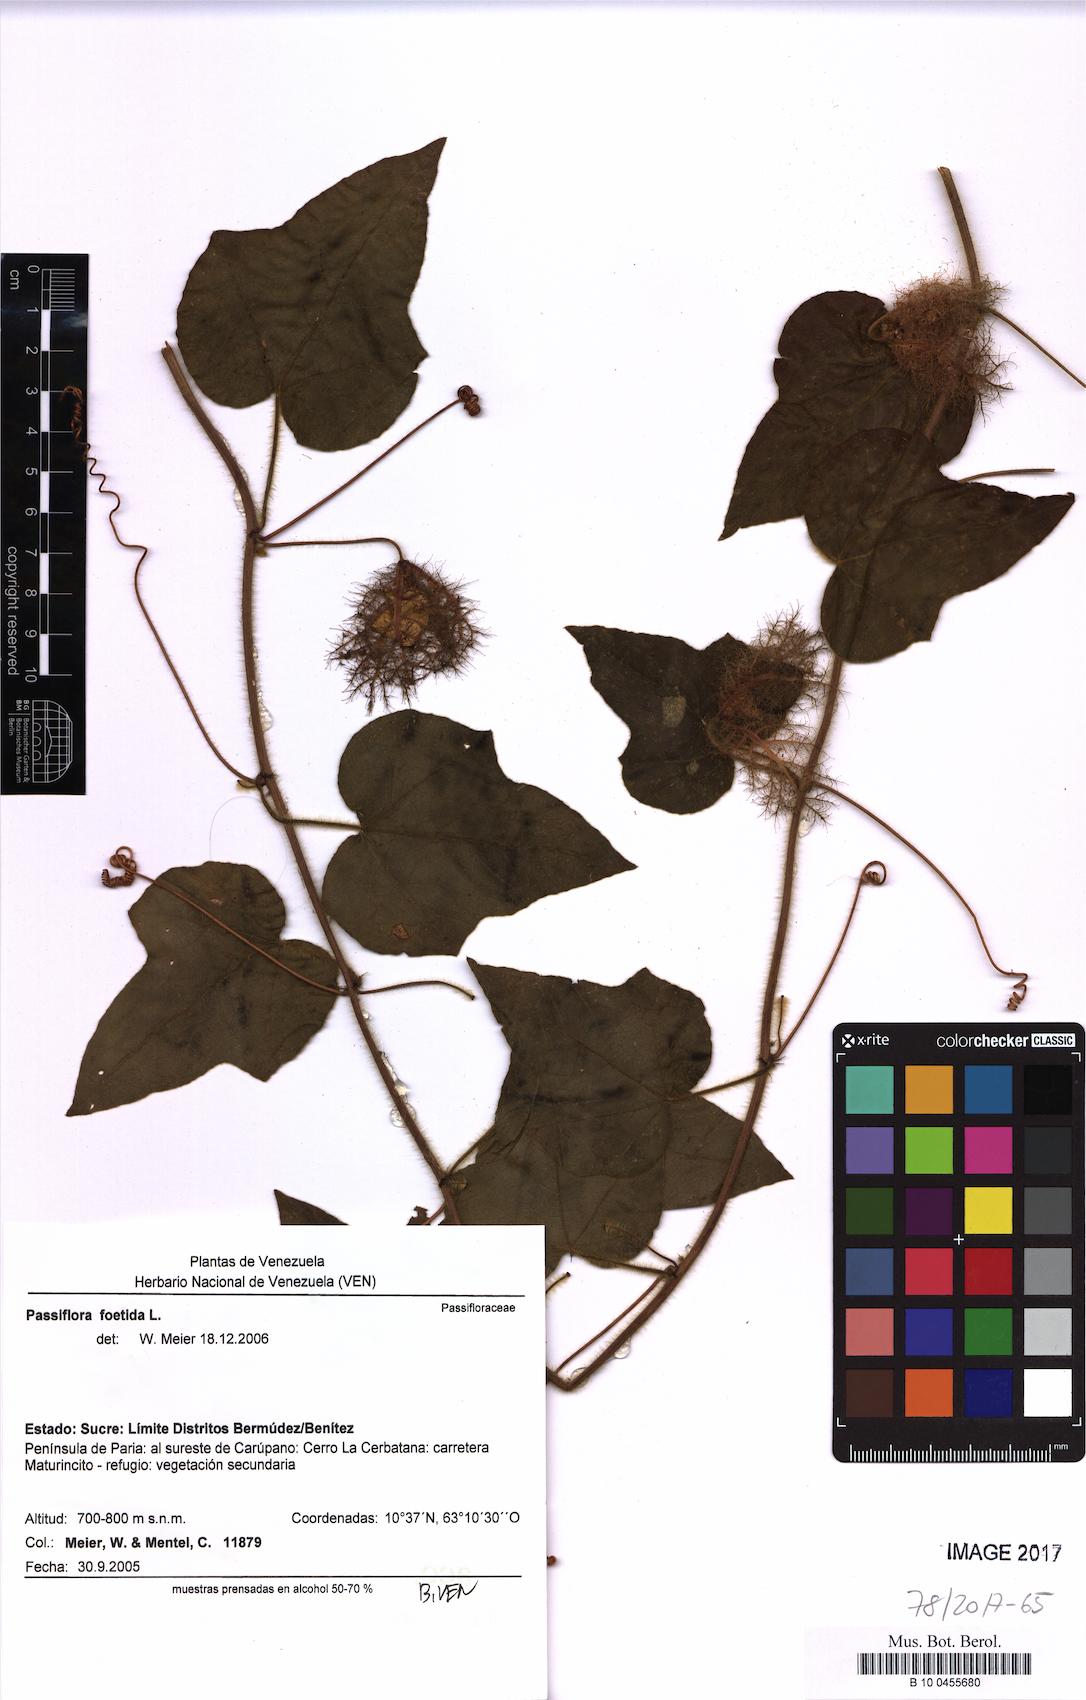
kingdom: Plantae
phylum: Tracheophyta
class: Magnoliopsida
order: Malpighiales
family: Passifloraceae
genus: Passiflora
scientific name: Passiflora foetida
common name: Fetid passionflower
